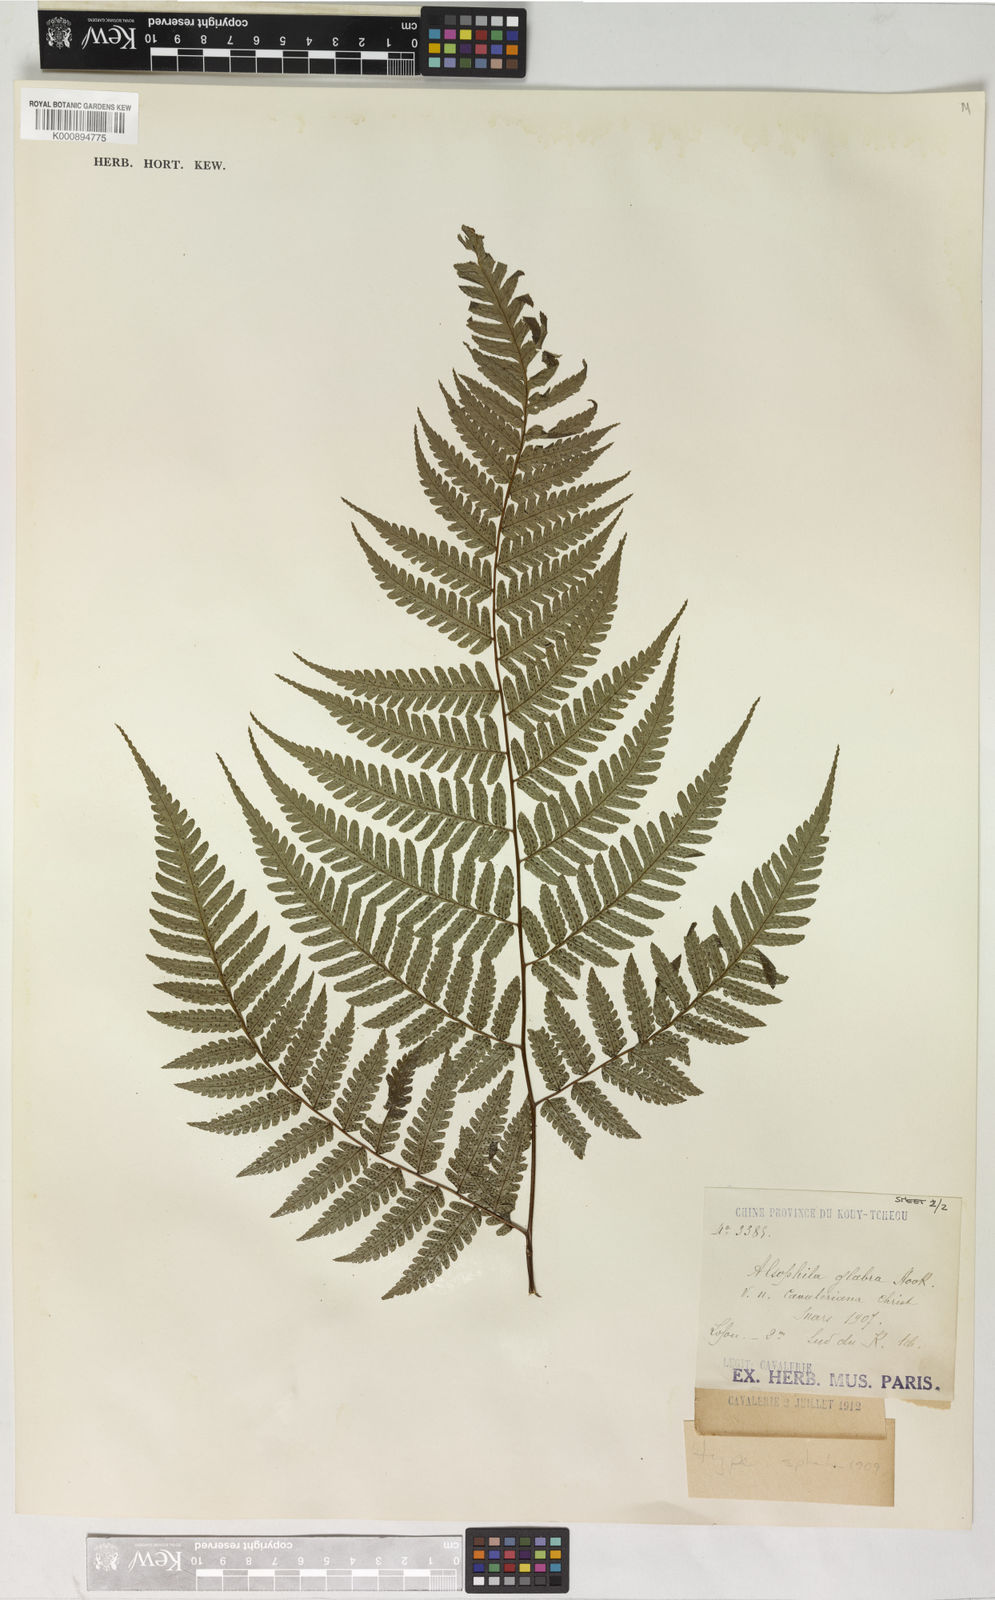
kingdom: Plantae
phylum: Tracheophyta
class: Polypodiopsida
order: Cyatheales
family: Cyatheaceae
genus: Gymnosphaera
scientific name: Gymnosphaera glabra
